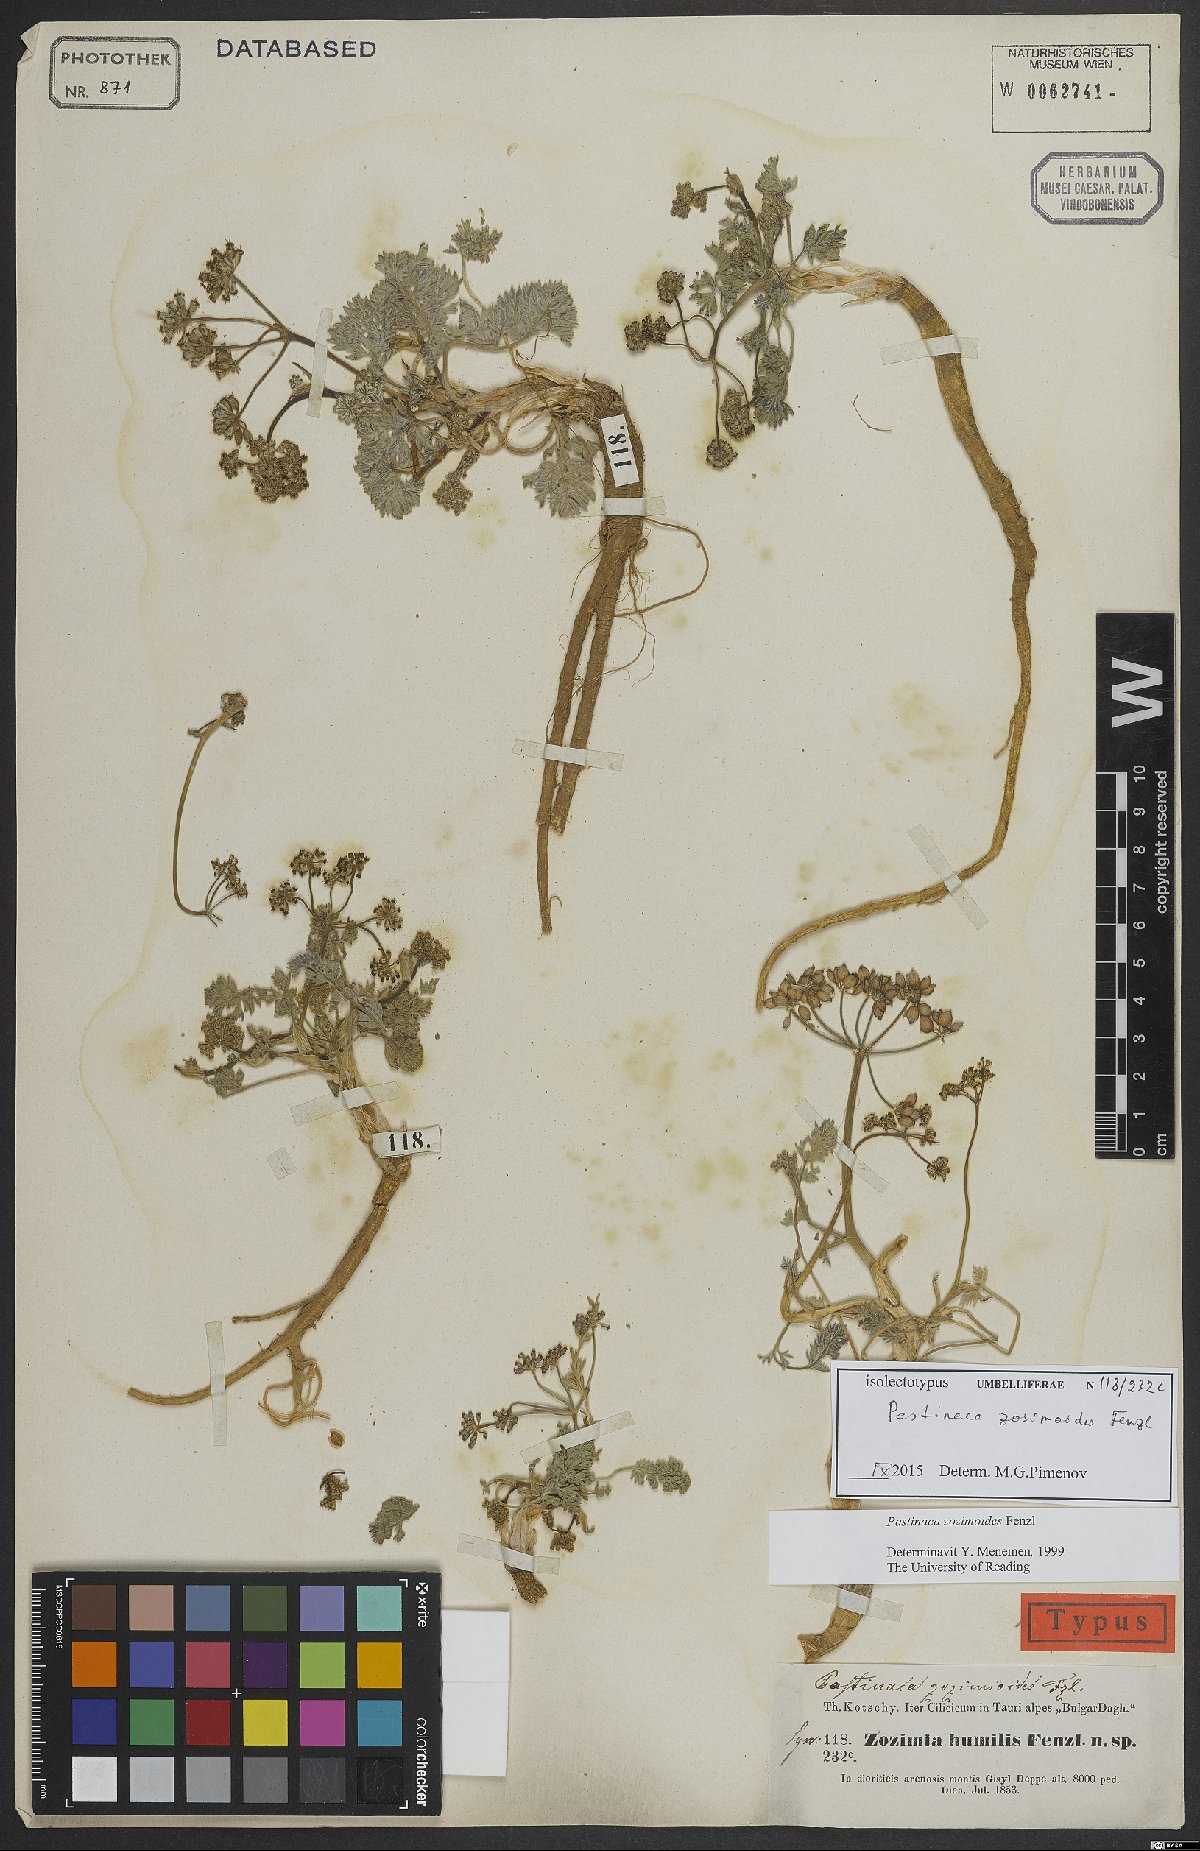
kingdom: Plantae
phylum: Tracheophyta
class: Magnoliopsida
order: Apiales
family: Apiaceae
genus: Pastinaca
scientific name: Pastinaca zozimoides
